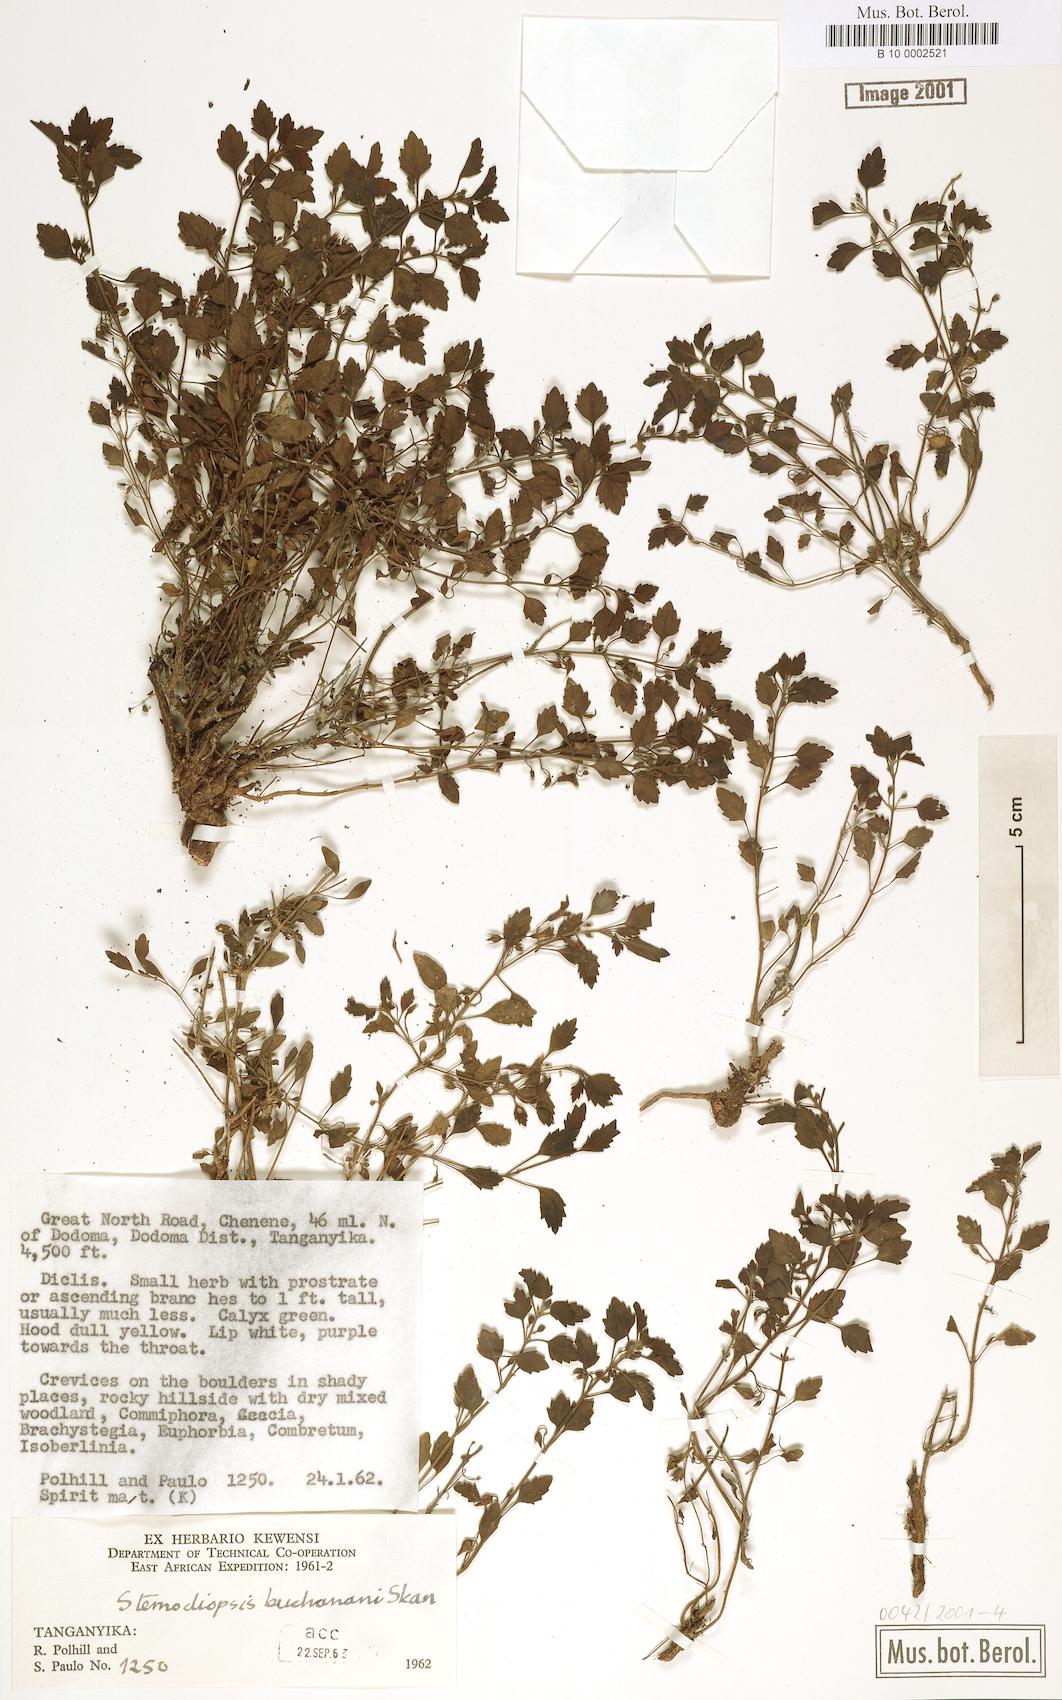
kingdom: Plantae
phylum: Tracheophyta
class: Magnoliopsida
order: Lamiales
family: Linderniaceae
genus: Stemodiopsis
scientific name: Stemodiopsis buchananii
